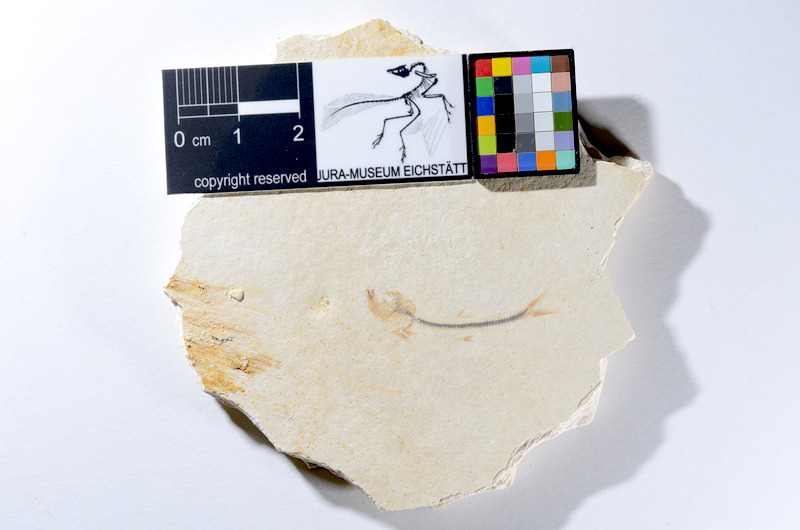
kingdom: Animalia
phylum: Chordata
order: Salmoniformes
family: Orthogonikleithridae
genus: Orthogonikleithrus
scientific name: Orthogonikleithrus hoelli
